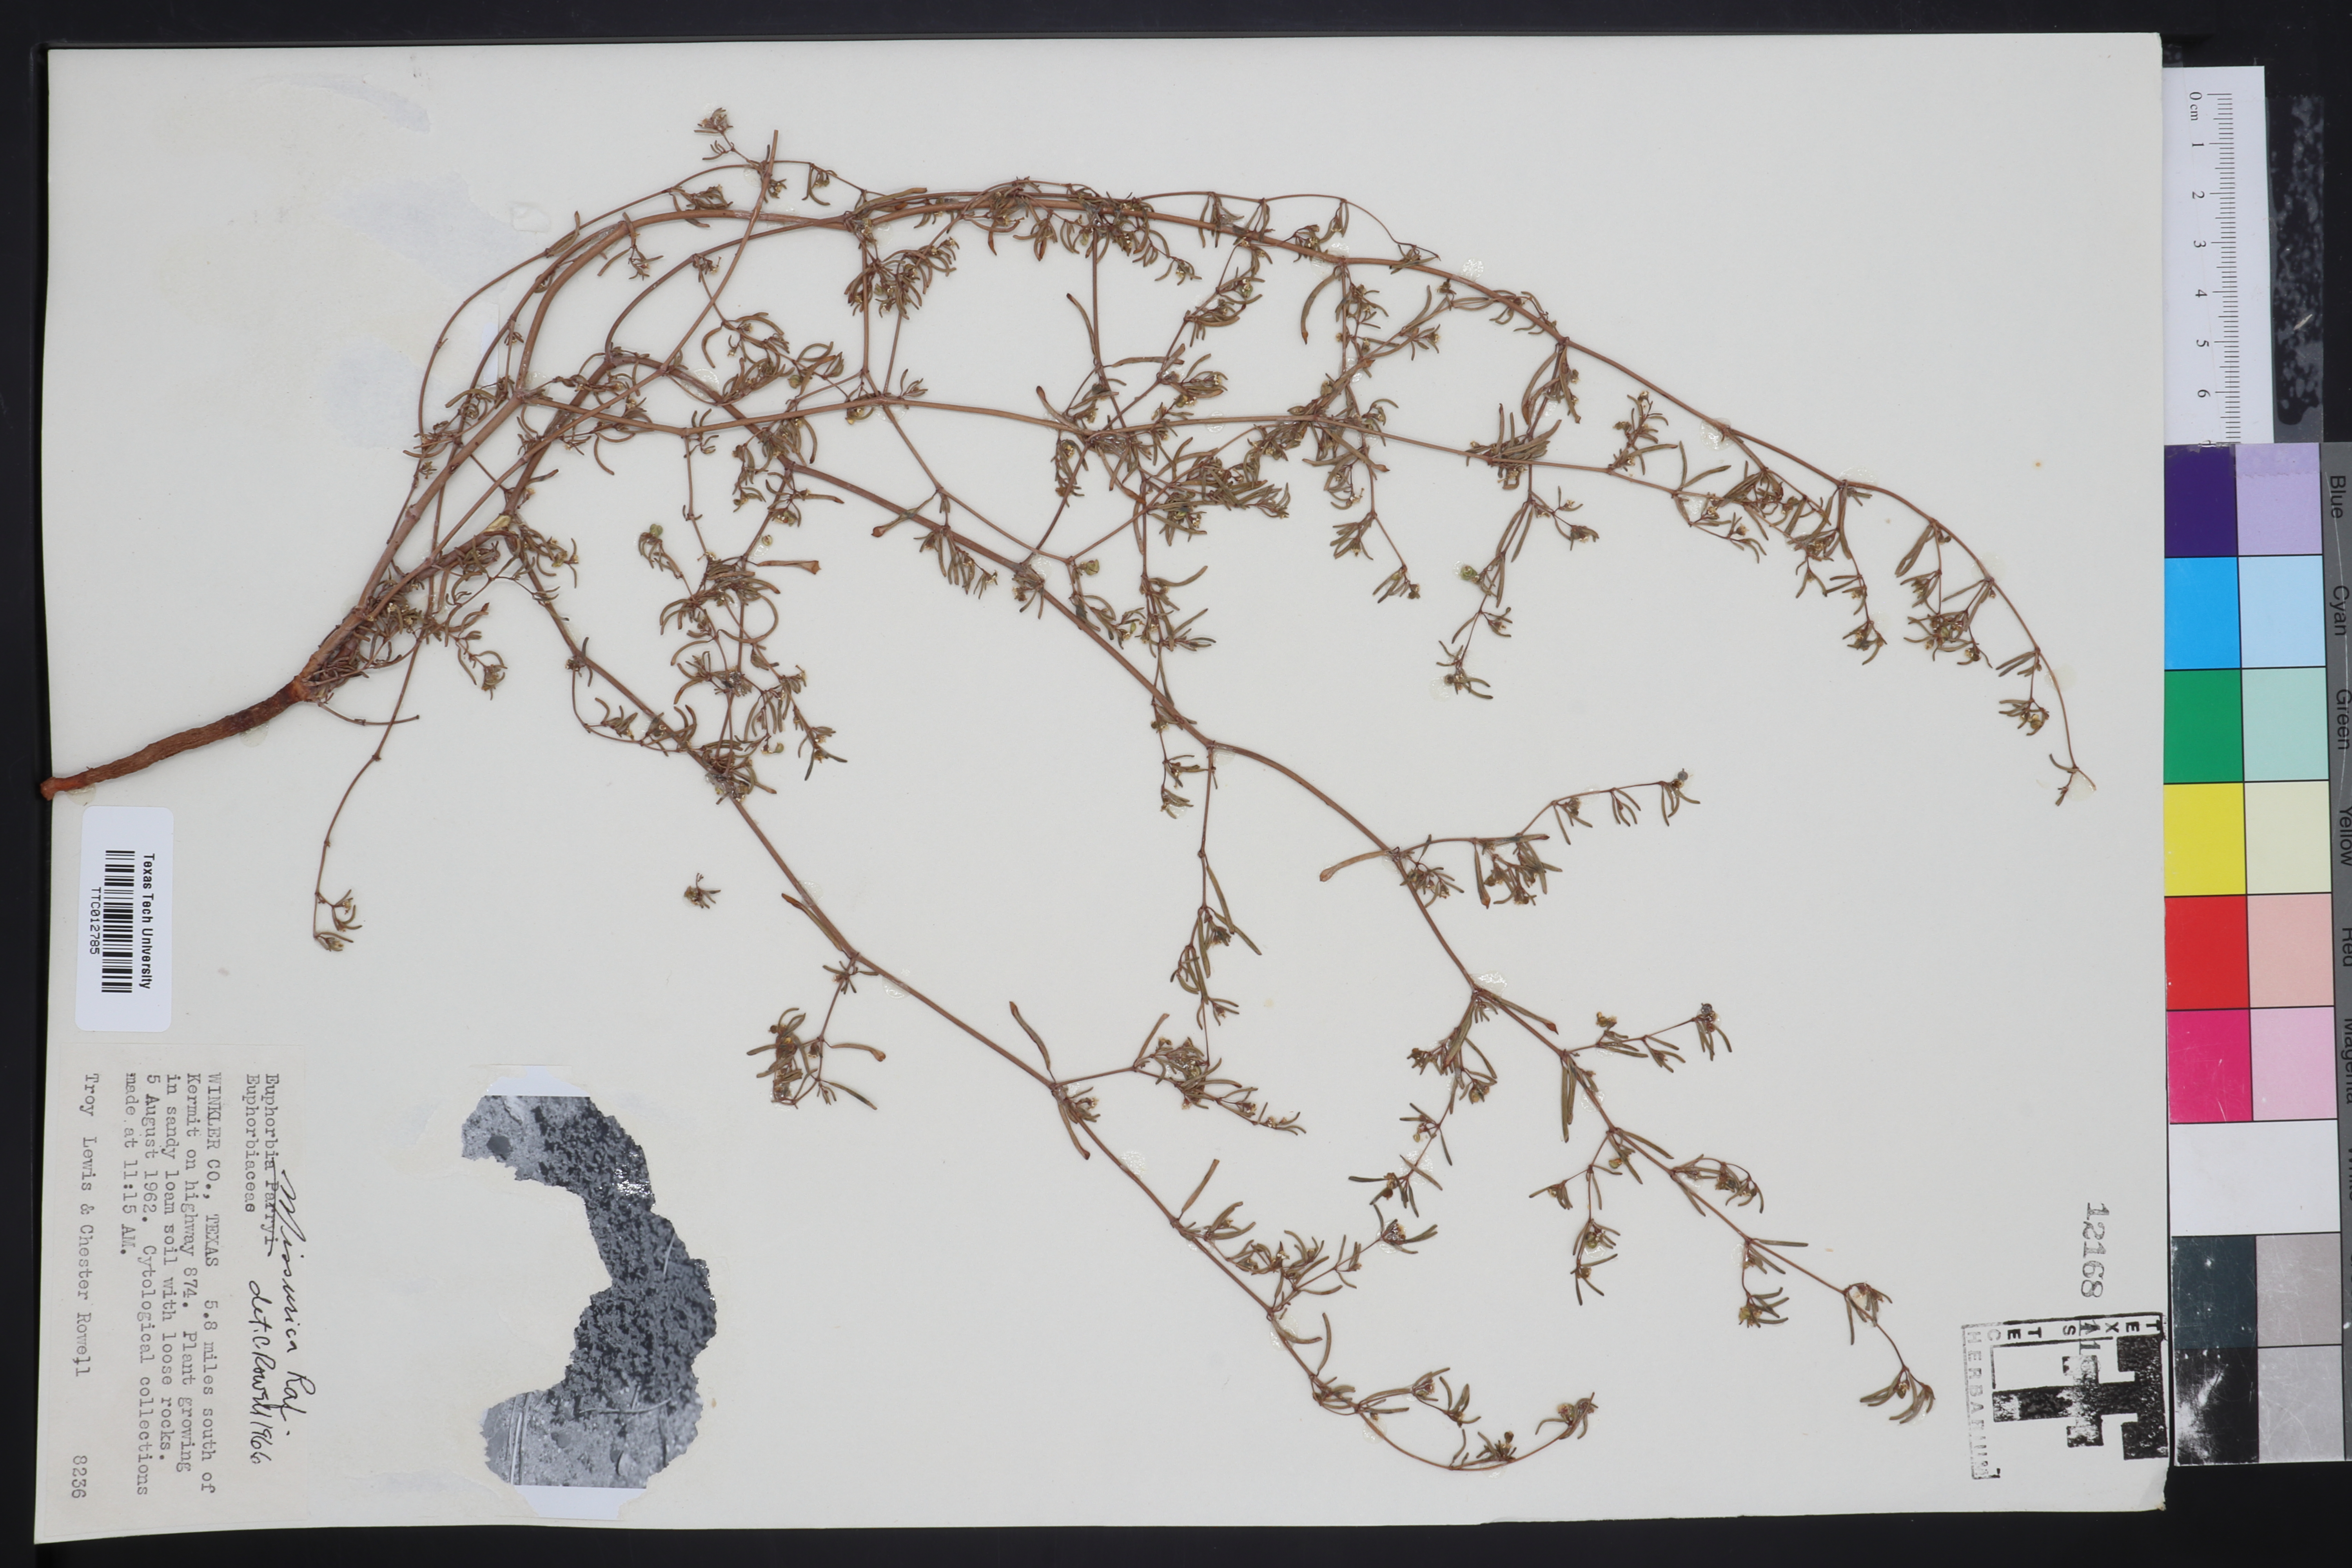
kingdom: Plantae
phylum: Tracheophyta
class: Magnoliopsida
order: Malpighiales
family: Euphorbiaceae
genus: Euphorbia
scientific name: Euphorbia missurica
